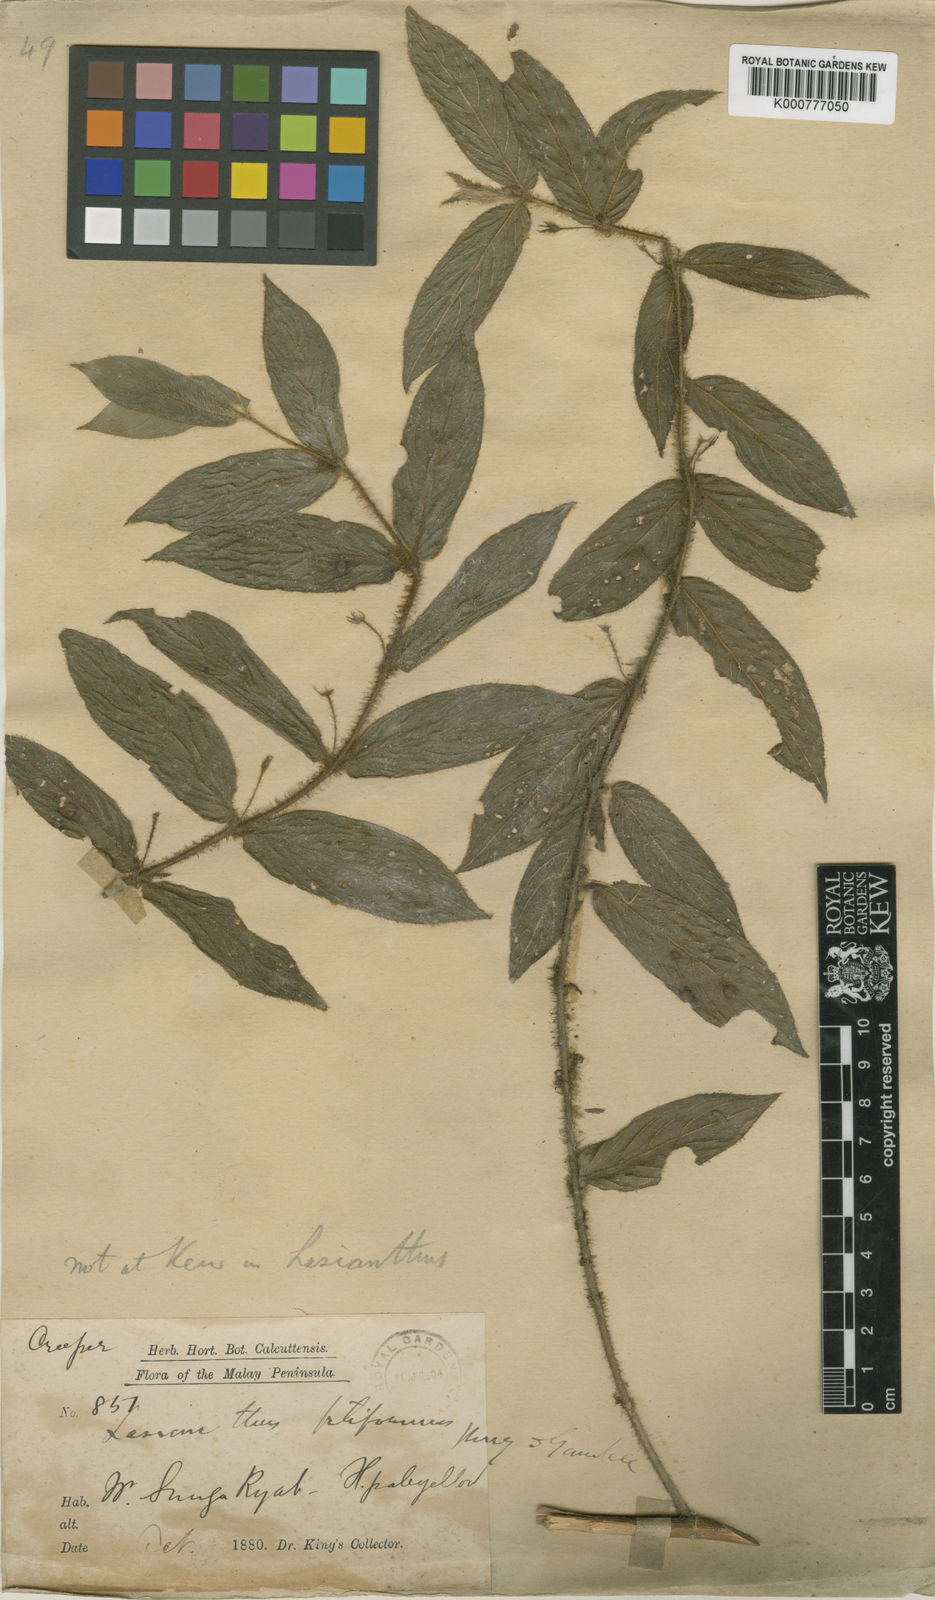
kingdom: Plantae
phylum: Tracheophyta
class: Magnoliopsida
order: Gentianales
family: Rubiaceae
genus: Lasianthus
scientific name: Lasianthus filiformis
